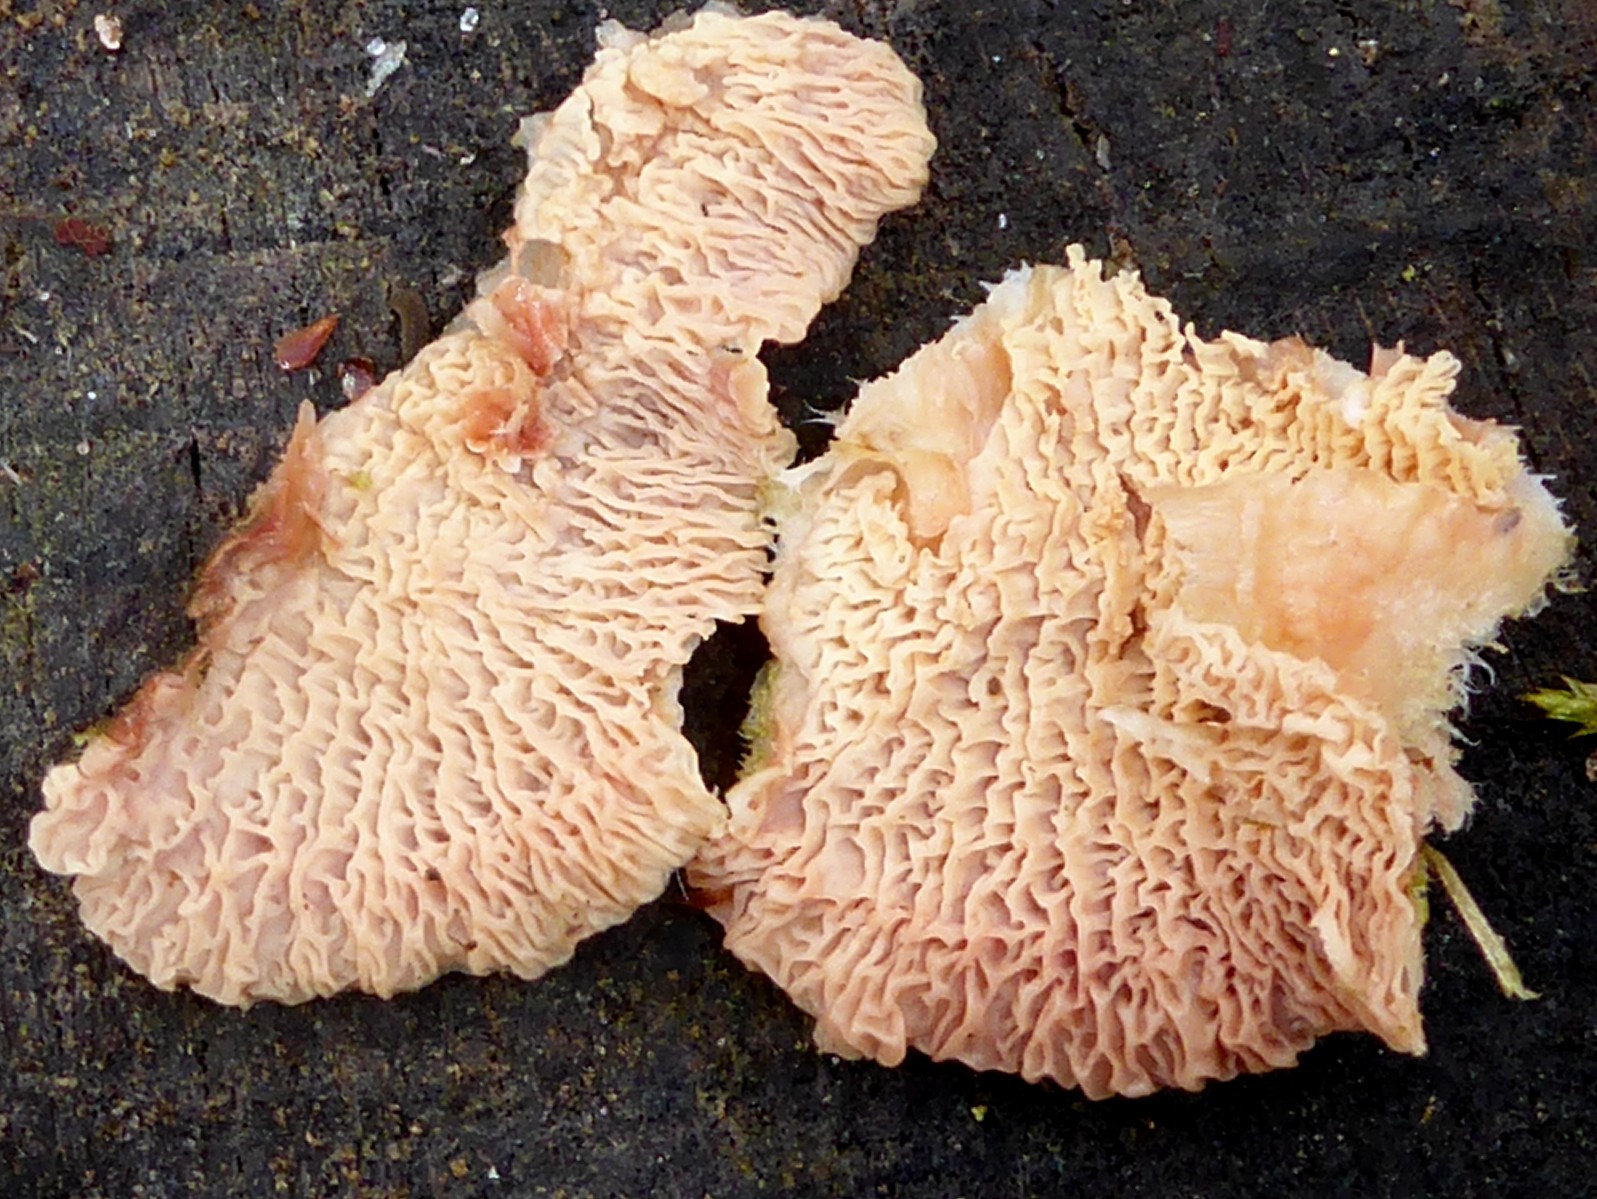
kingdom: Fungi
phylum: Basidiomycota
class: Agaricomycetes
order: Polyporales
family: Meruliaceae
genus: Phlebia
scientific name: Phlebia tremellosa
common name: bævrende åresvamp
